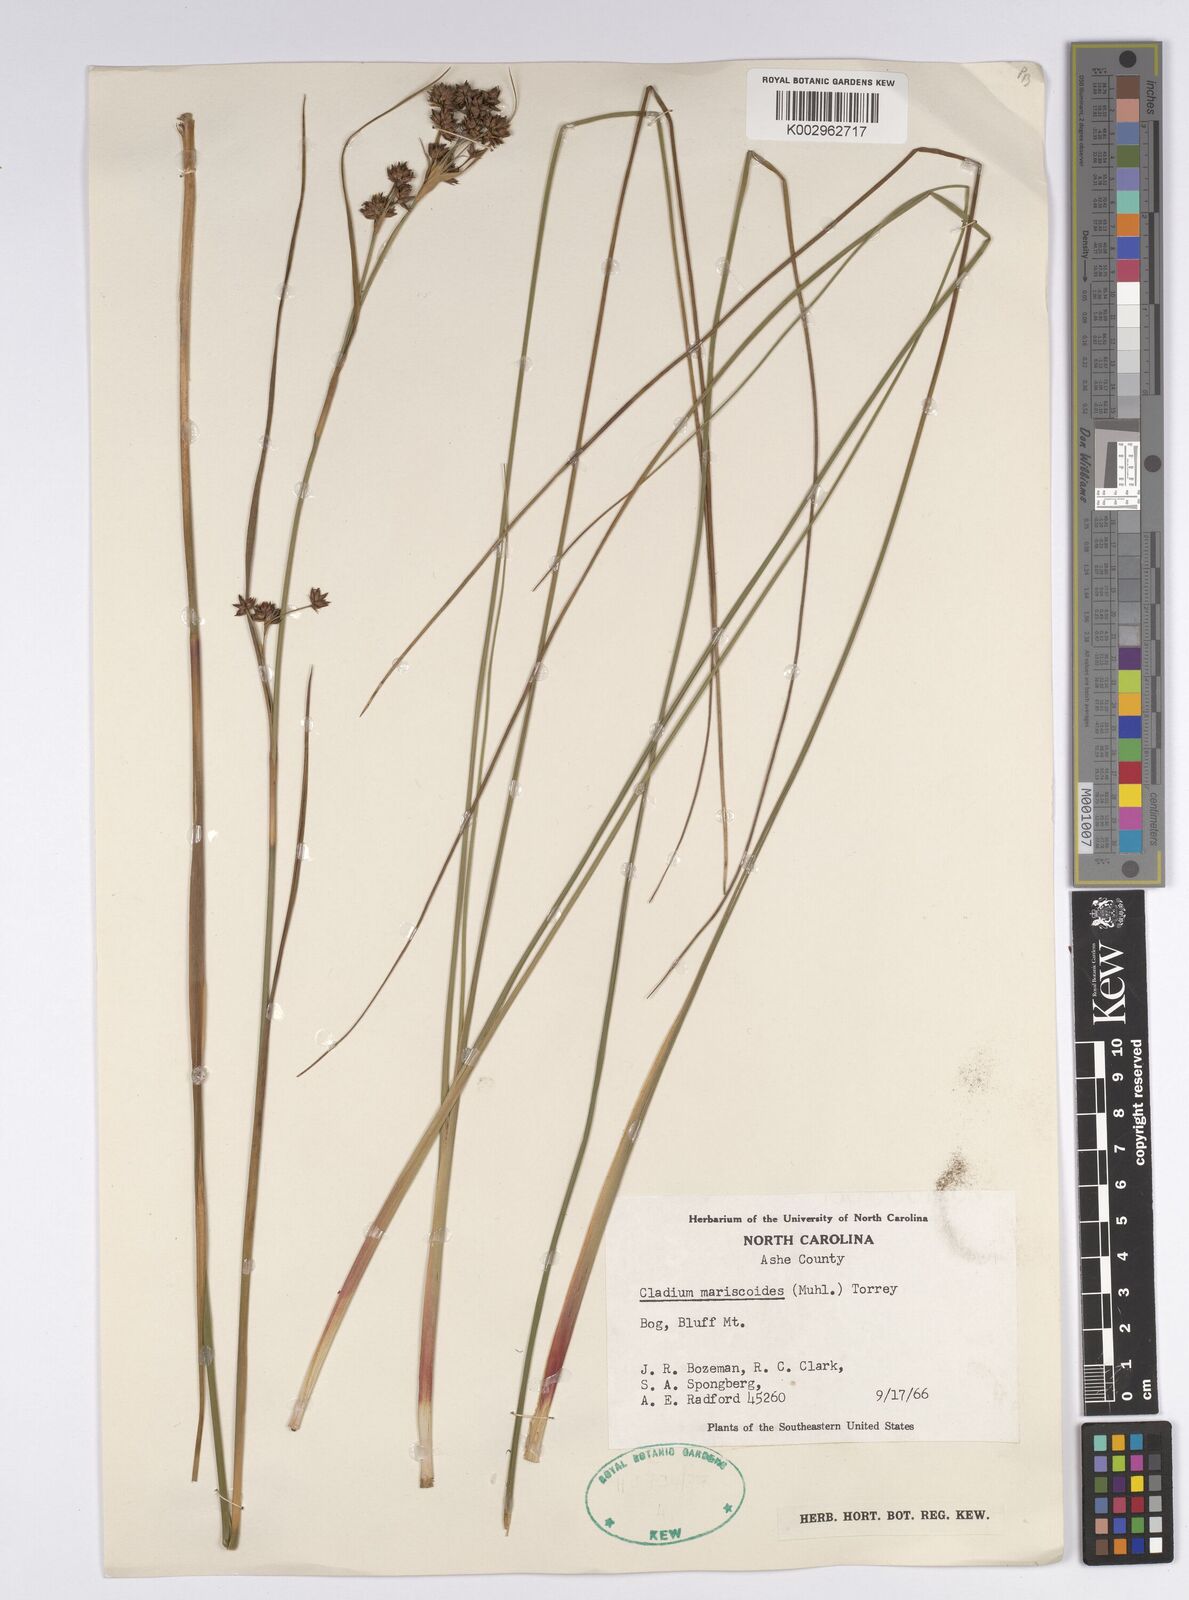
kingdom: Plantae
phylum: Tracheophyta
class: Liliopsida
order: Poales
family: Cyperaceae
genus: Cladium
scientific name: Cladium mariscoides
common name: Smooth sawgrass
